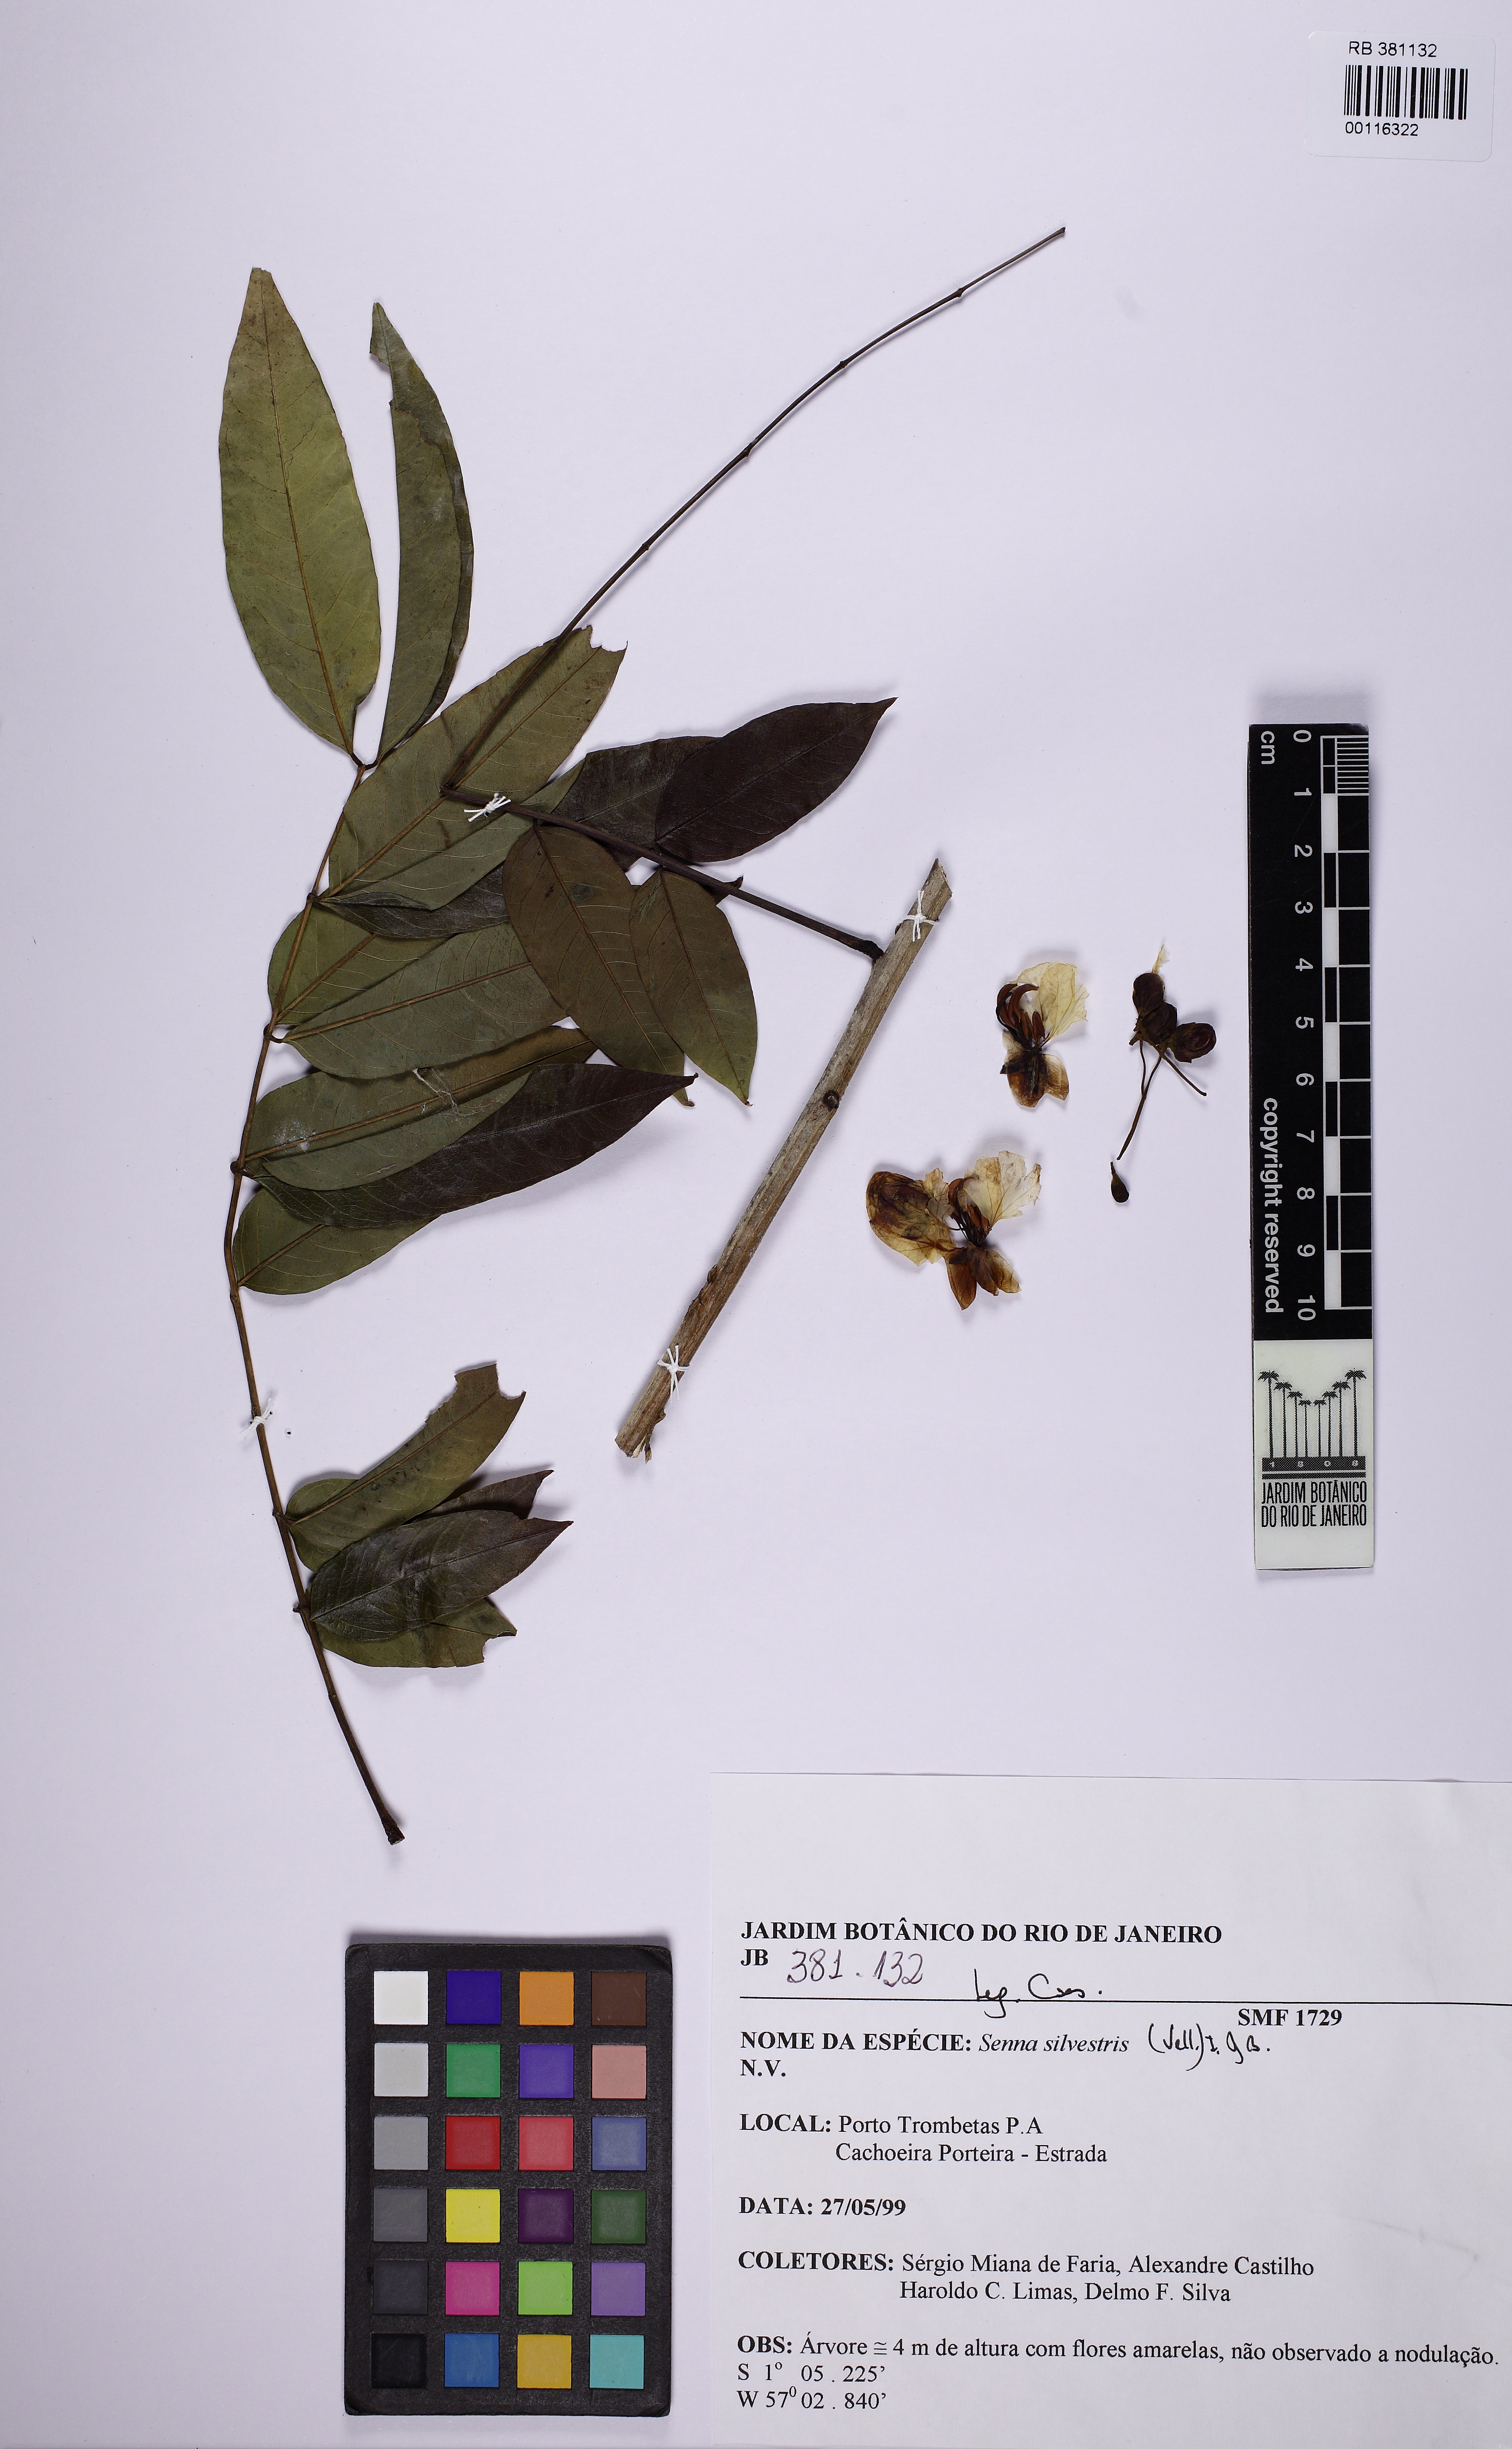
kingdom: Plantae
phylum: Tracheophyta
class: Magnoliopsida
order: Fabales
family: Fabaceae
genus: Senna
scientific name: Senna silvestris
